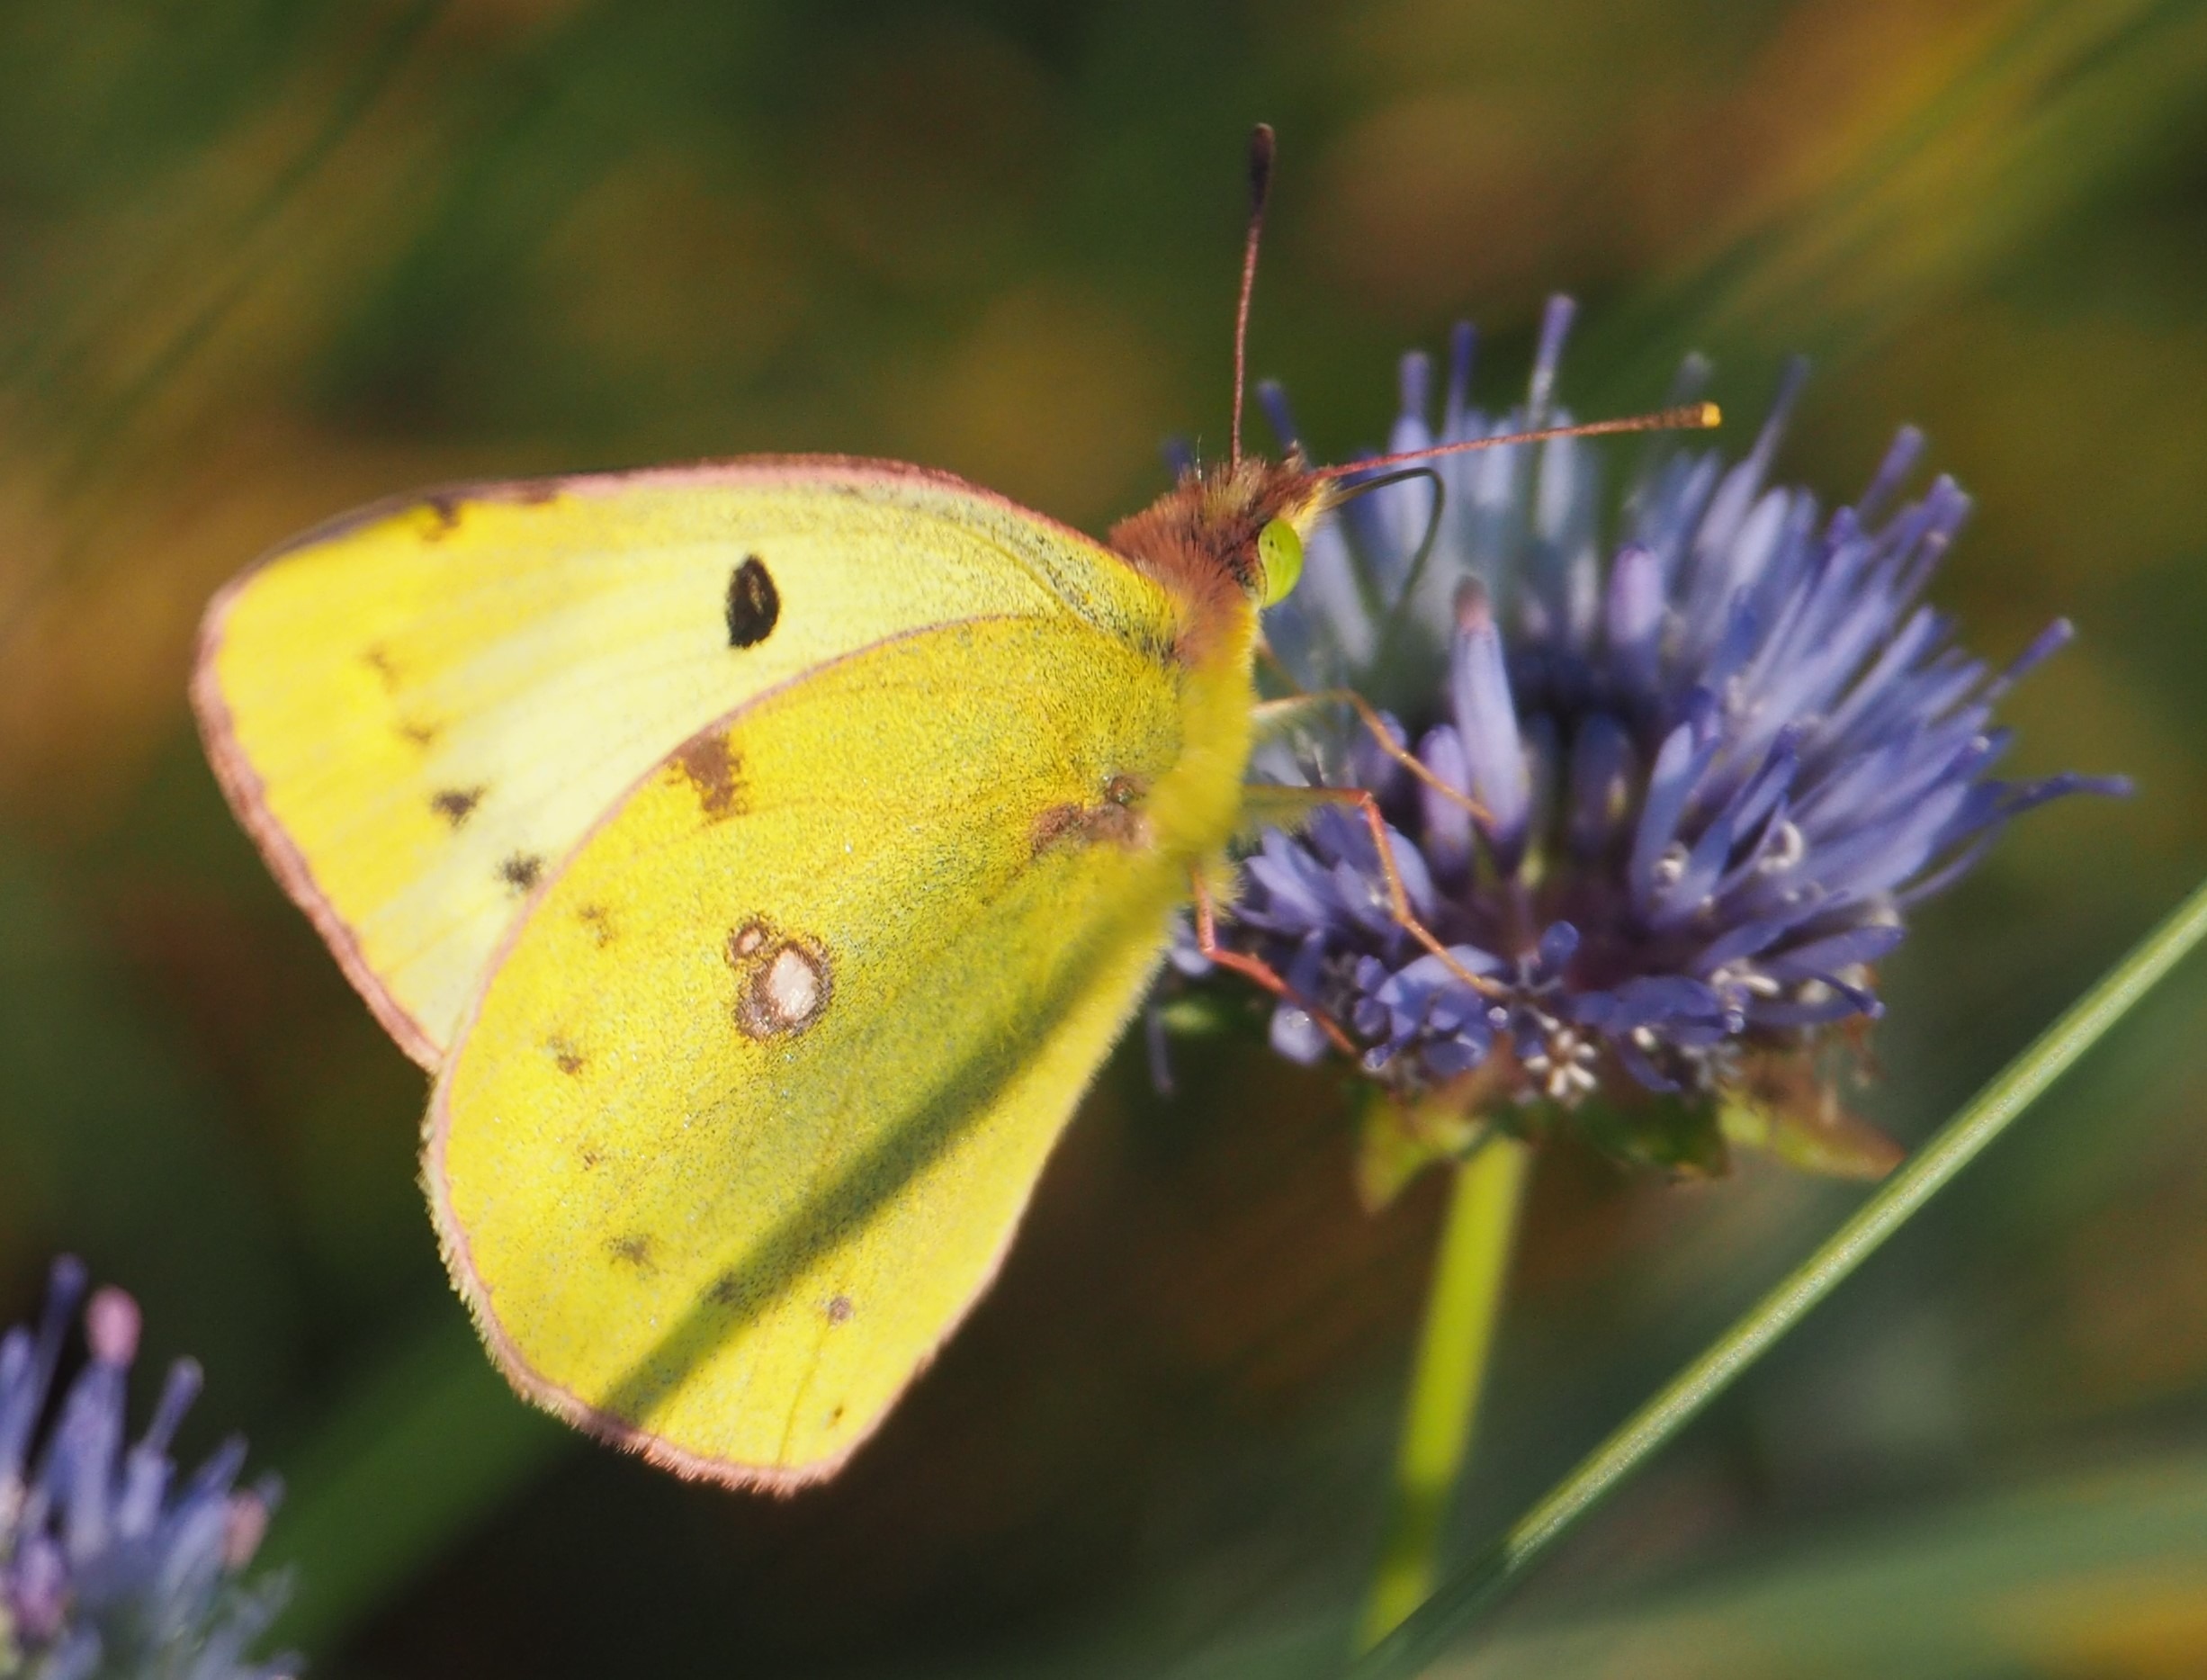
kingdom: Animalia
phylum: Arthropoda
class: Insecta
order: Lepidoptera
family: Pieridae
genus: Colias
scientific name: Colias hyale
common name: Gul høsommerfugl
